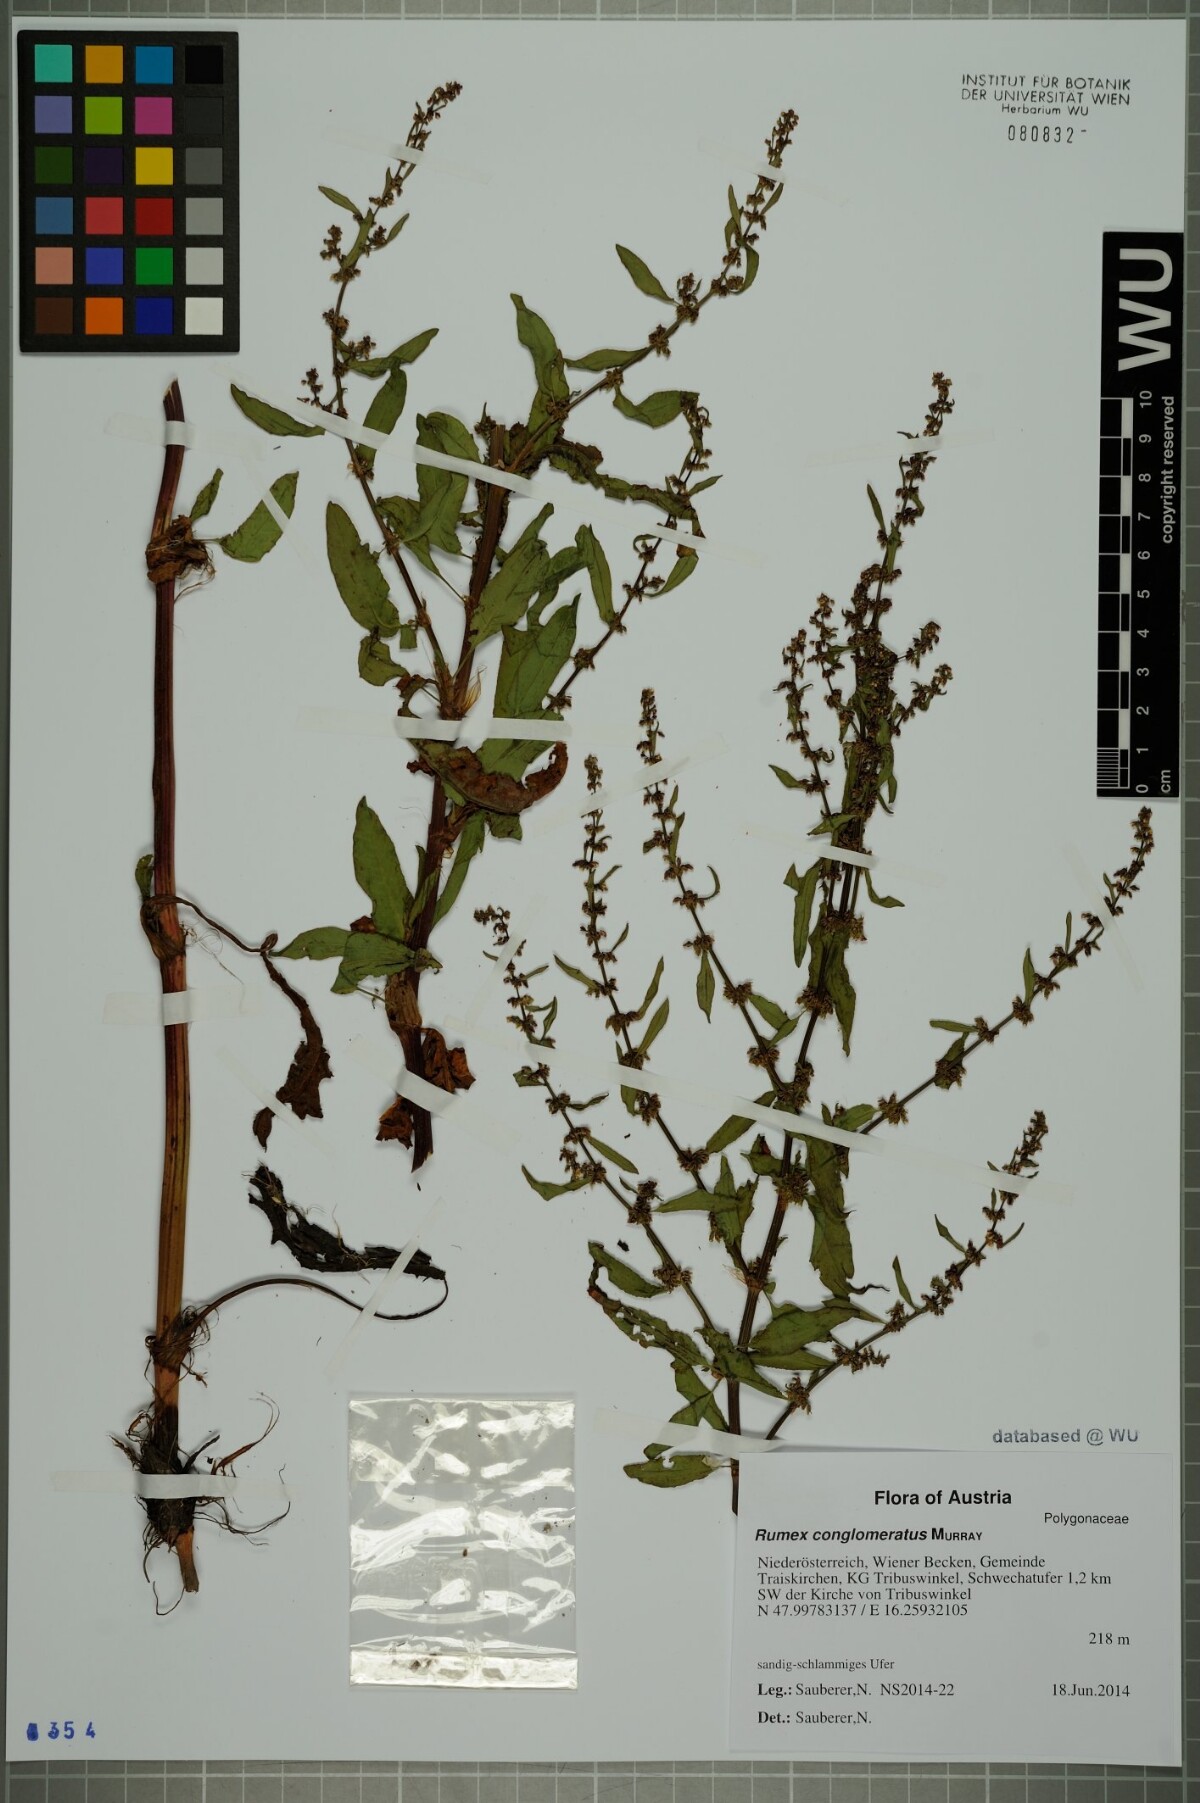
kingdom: Plantae
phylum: Tracheophyta
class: Magnoliopsida
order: Caryophyllales
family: Polygonaceae
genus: Rumex
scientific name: Rumex conglomeratus
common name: Clustered dock
